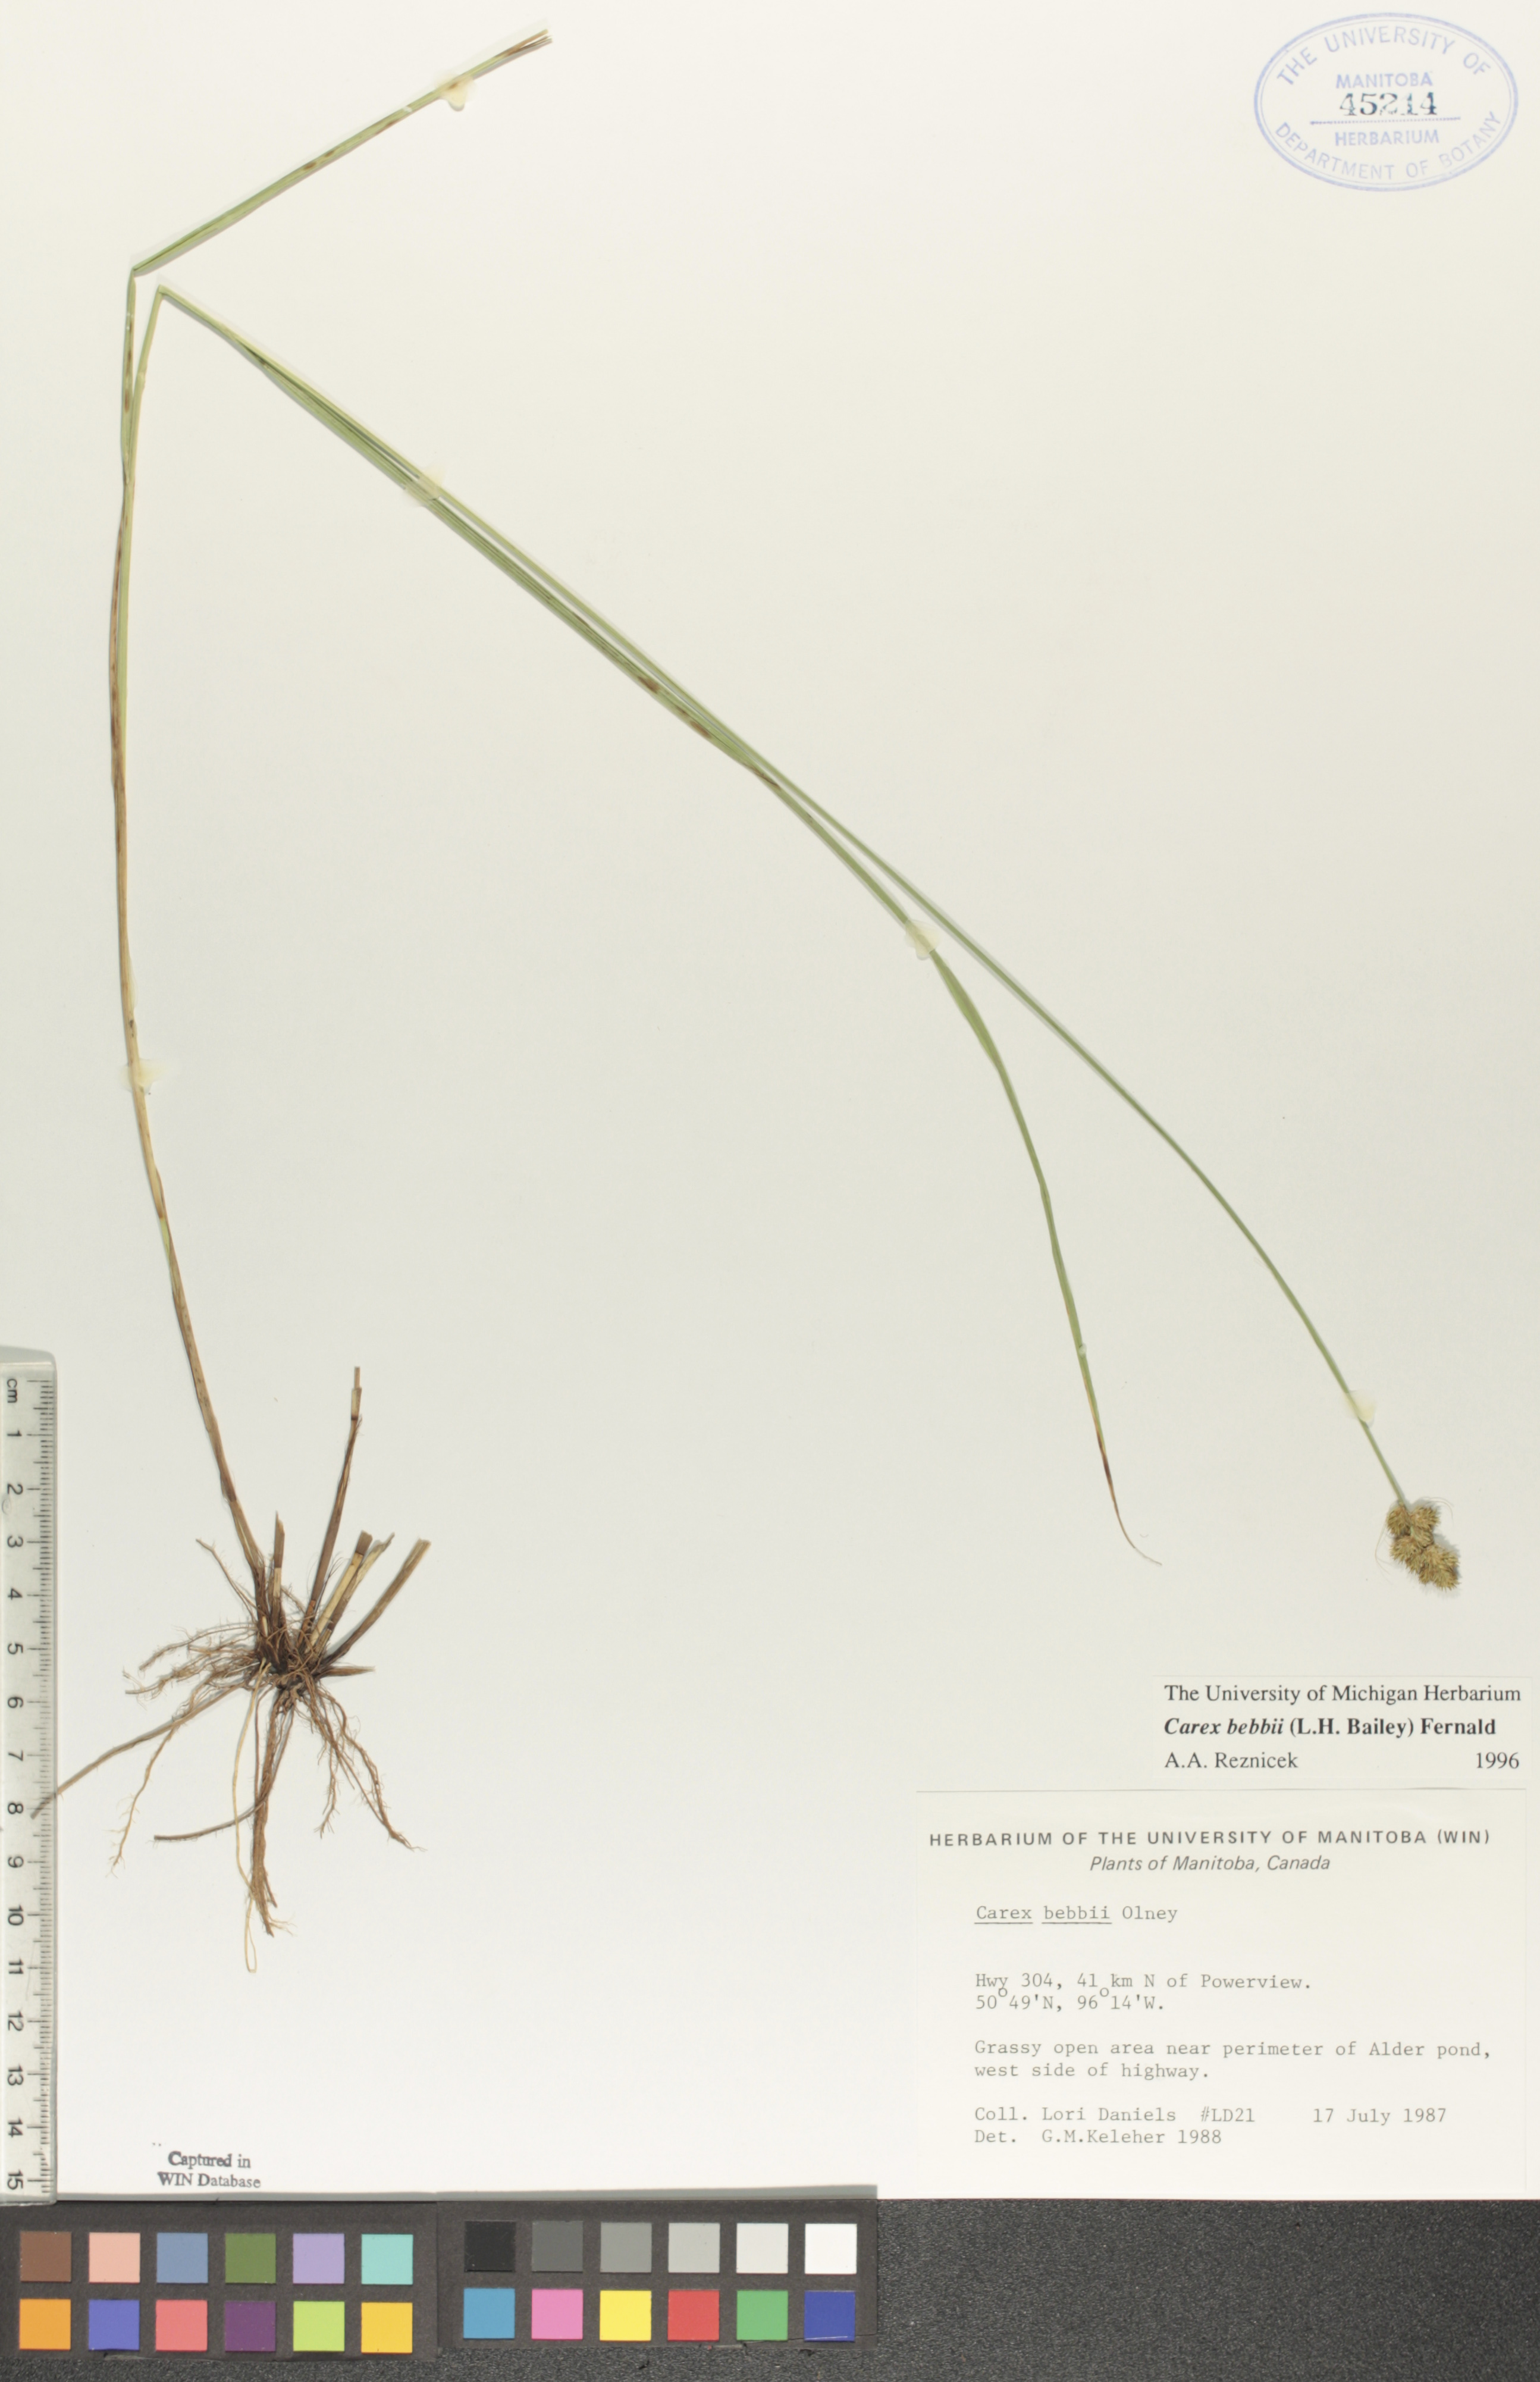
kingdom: Plantae
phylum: Tracheophyta
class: Liliopsida
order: Poales
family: Cyperaceae
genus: Carex
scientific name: Carex bebbii
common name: Bebb's sedge
